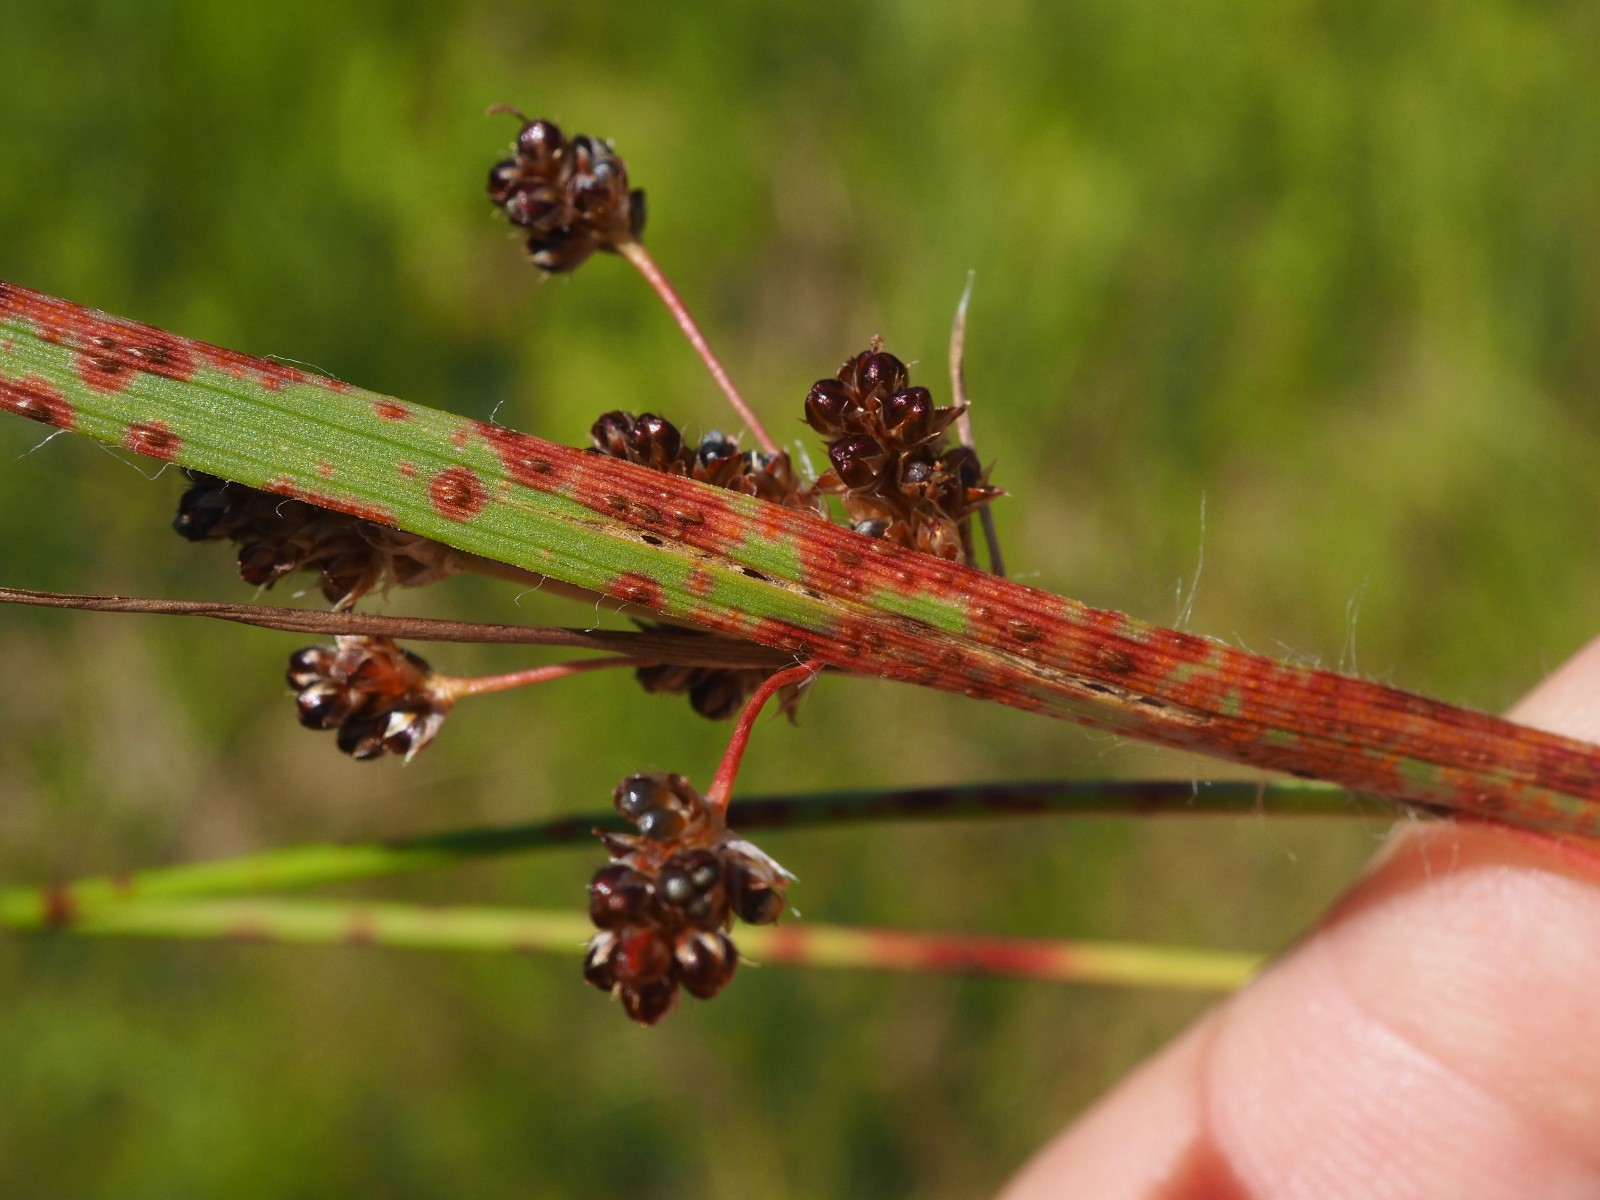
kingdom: Fungi
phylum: Basidiomycota
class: Pucciniomycetes
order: Pucciniales
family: Pucciniaceae
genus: Puccinia
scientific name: Puccinia obscura
